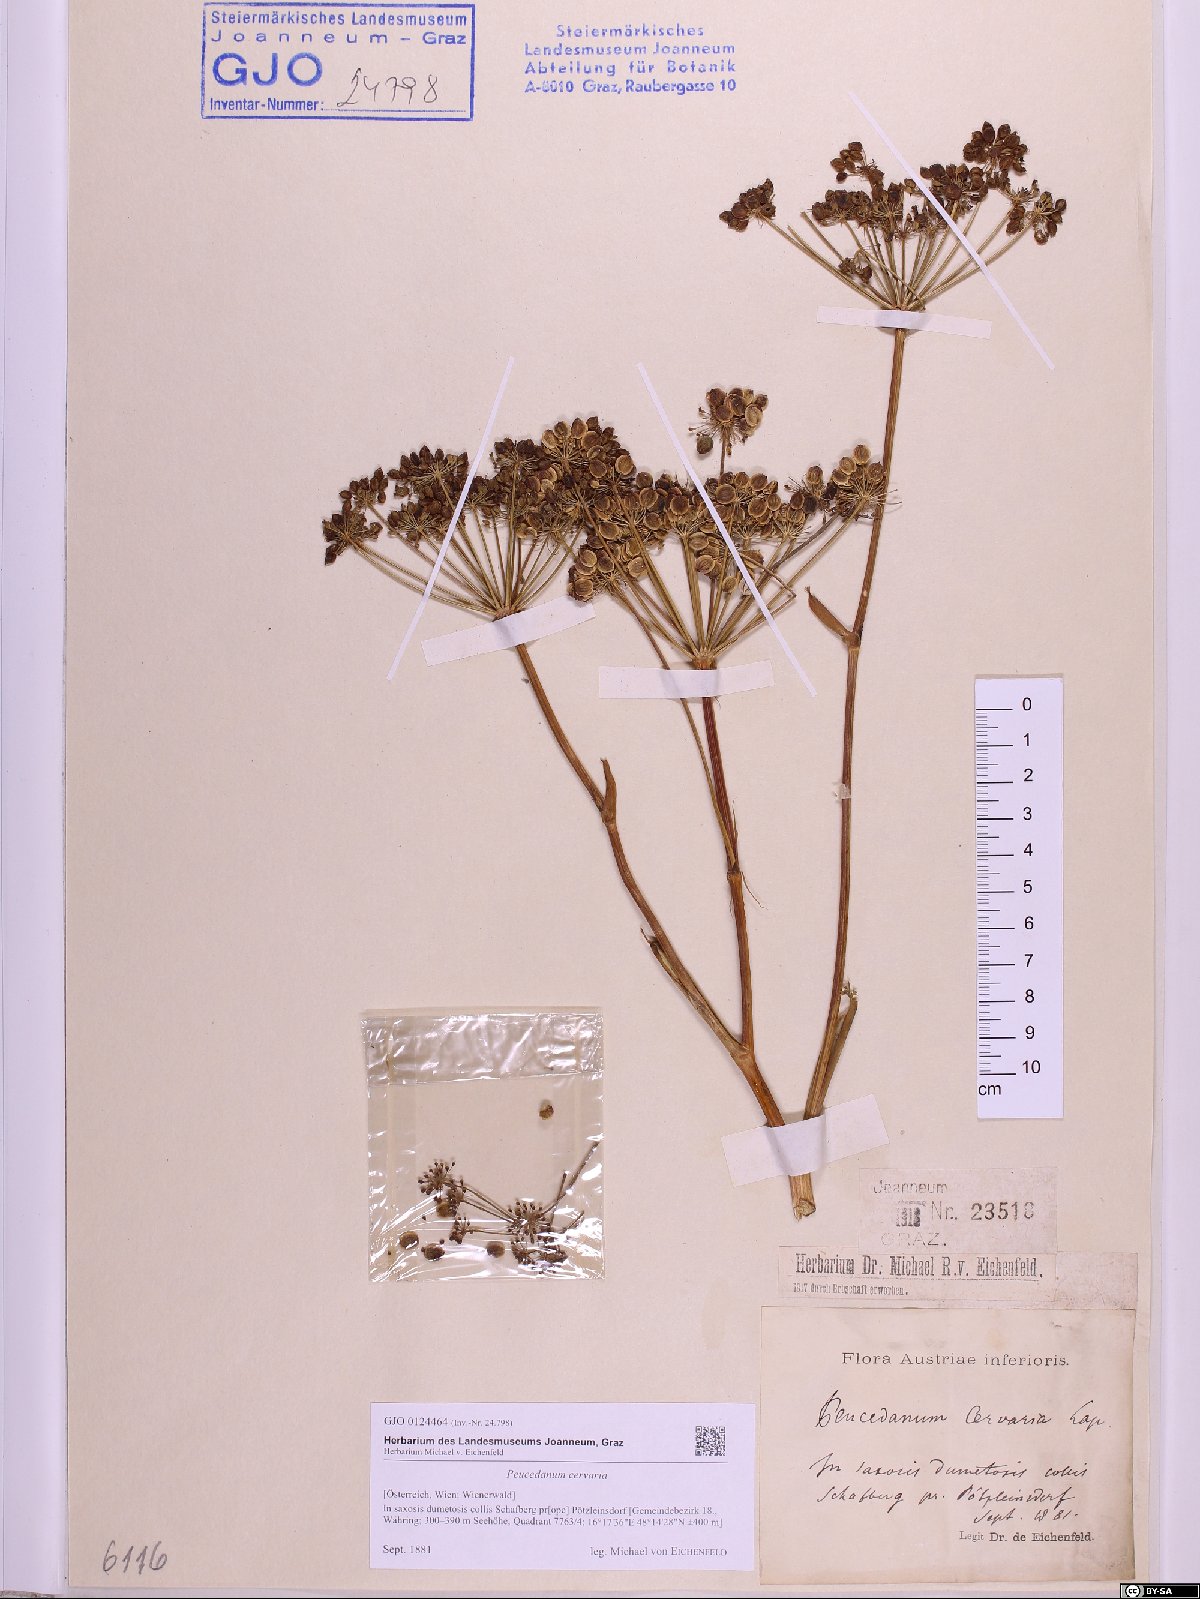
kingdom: Plantae
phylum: Tracheophyta
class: Magnoliopsida
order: Apiales
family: Apiaceae
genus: Cervaria
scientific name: Cervaria rivini
